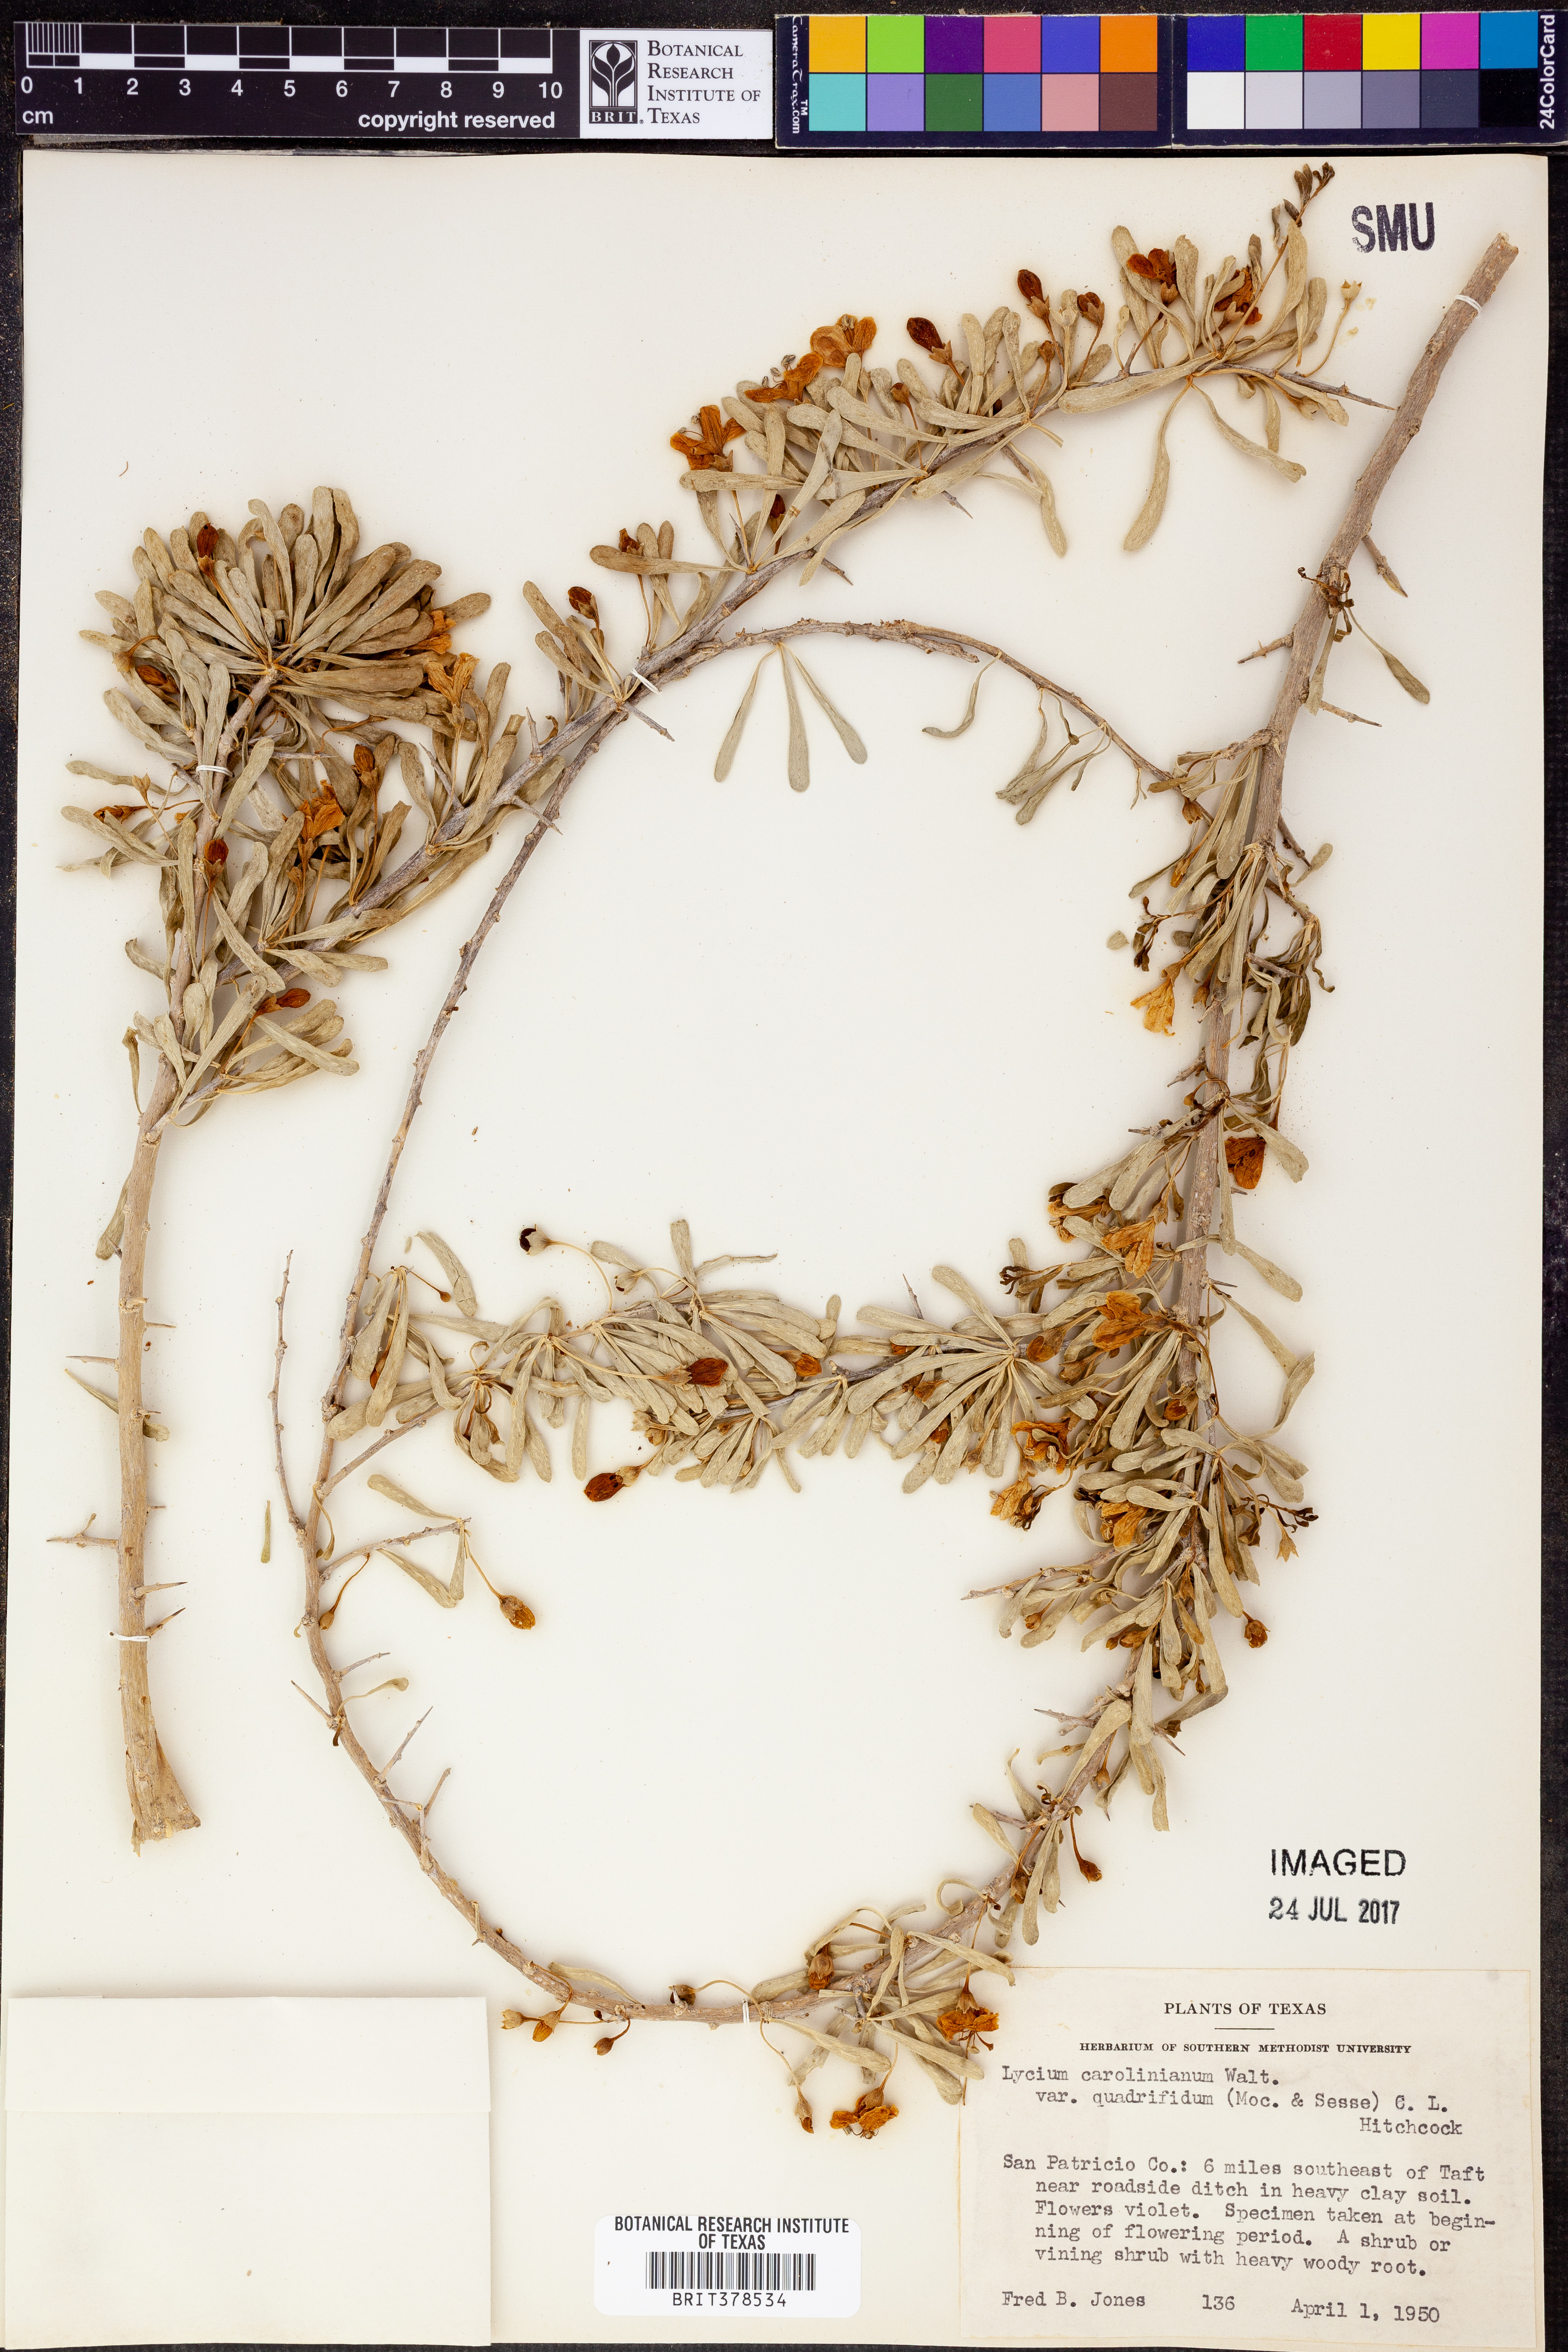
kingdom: Plantae
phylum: Tracheophyta
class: Magnoliopsida
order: Solanales
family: Solanaceae
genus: Lycium
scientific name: Lycium carolinianum
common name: Christmasberry
